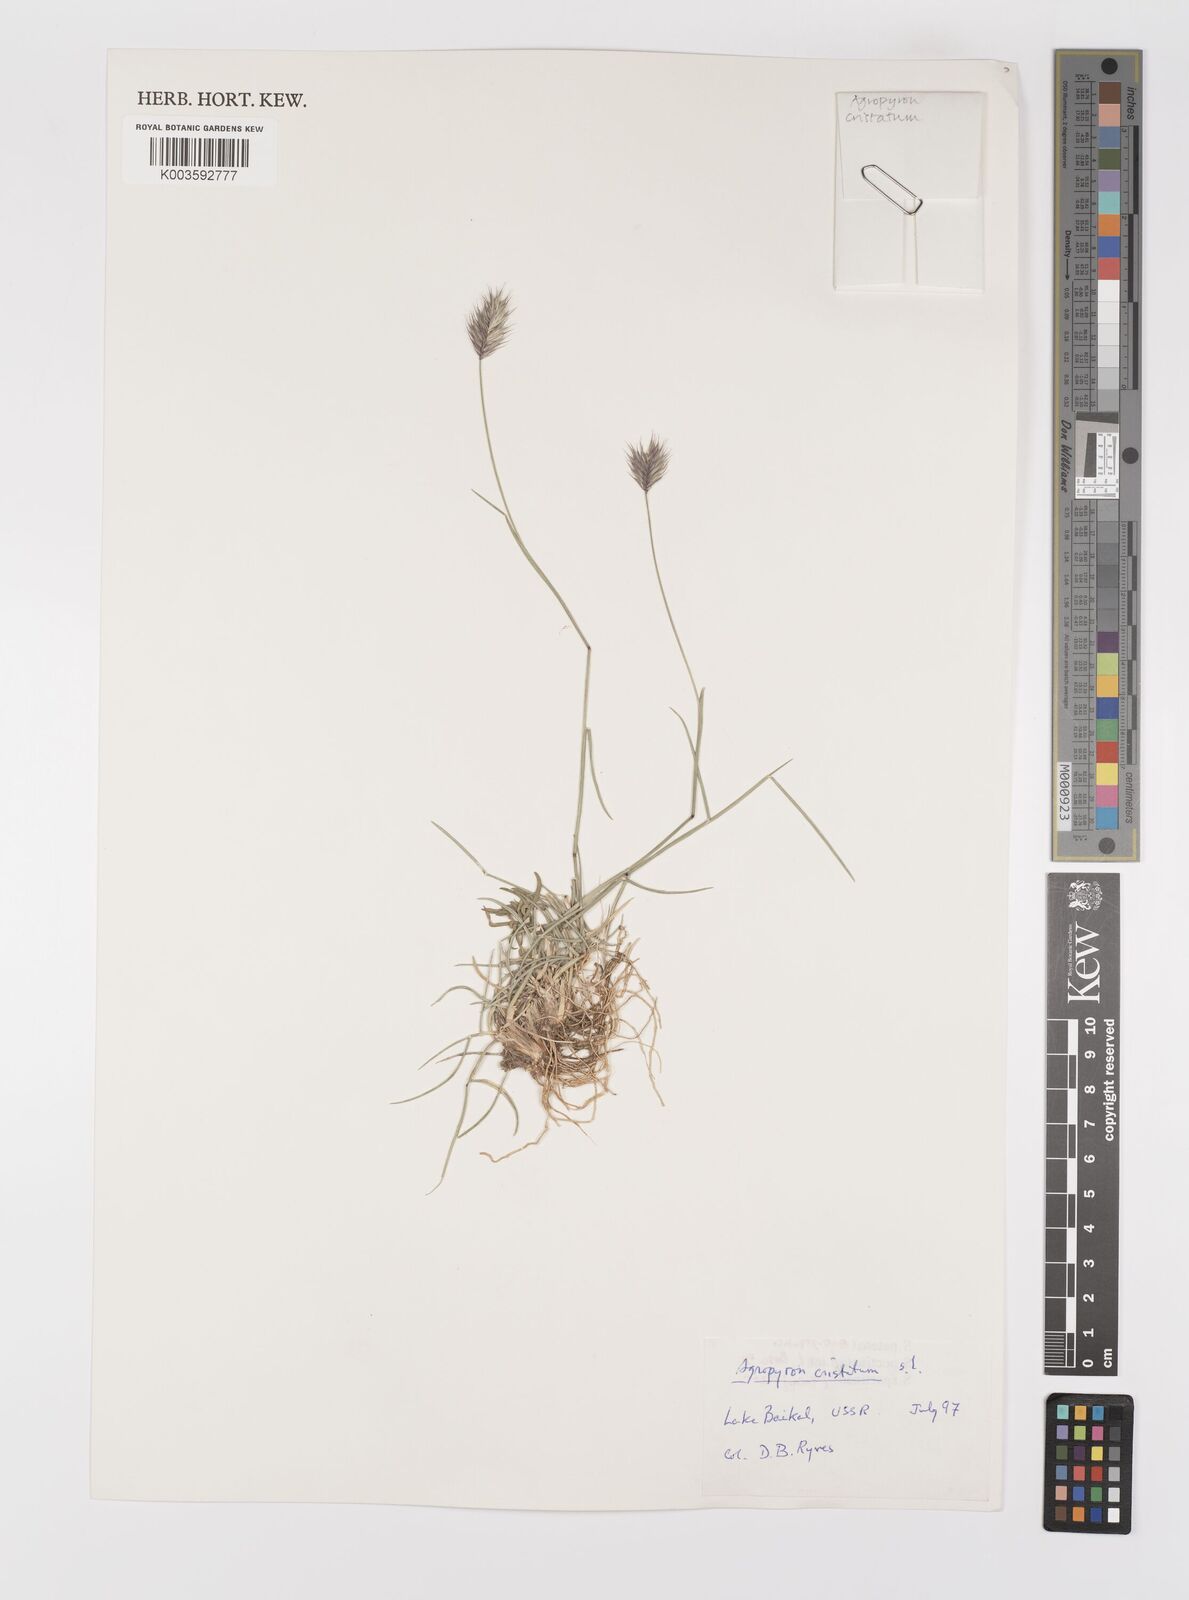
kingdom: Plantae
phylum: Tracheophyta
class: Liliopsida
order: Poales
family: Poaceae
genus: Agropyron
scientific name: Agropyron cristatum
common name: Crested wheatgrass
